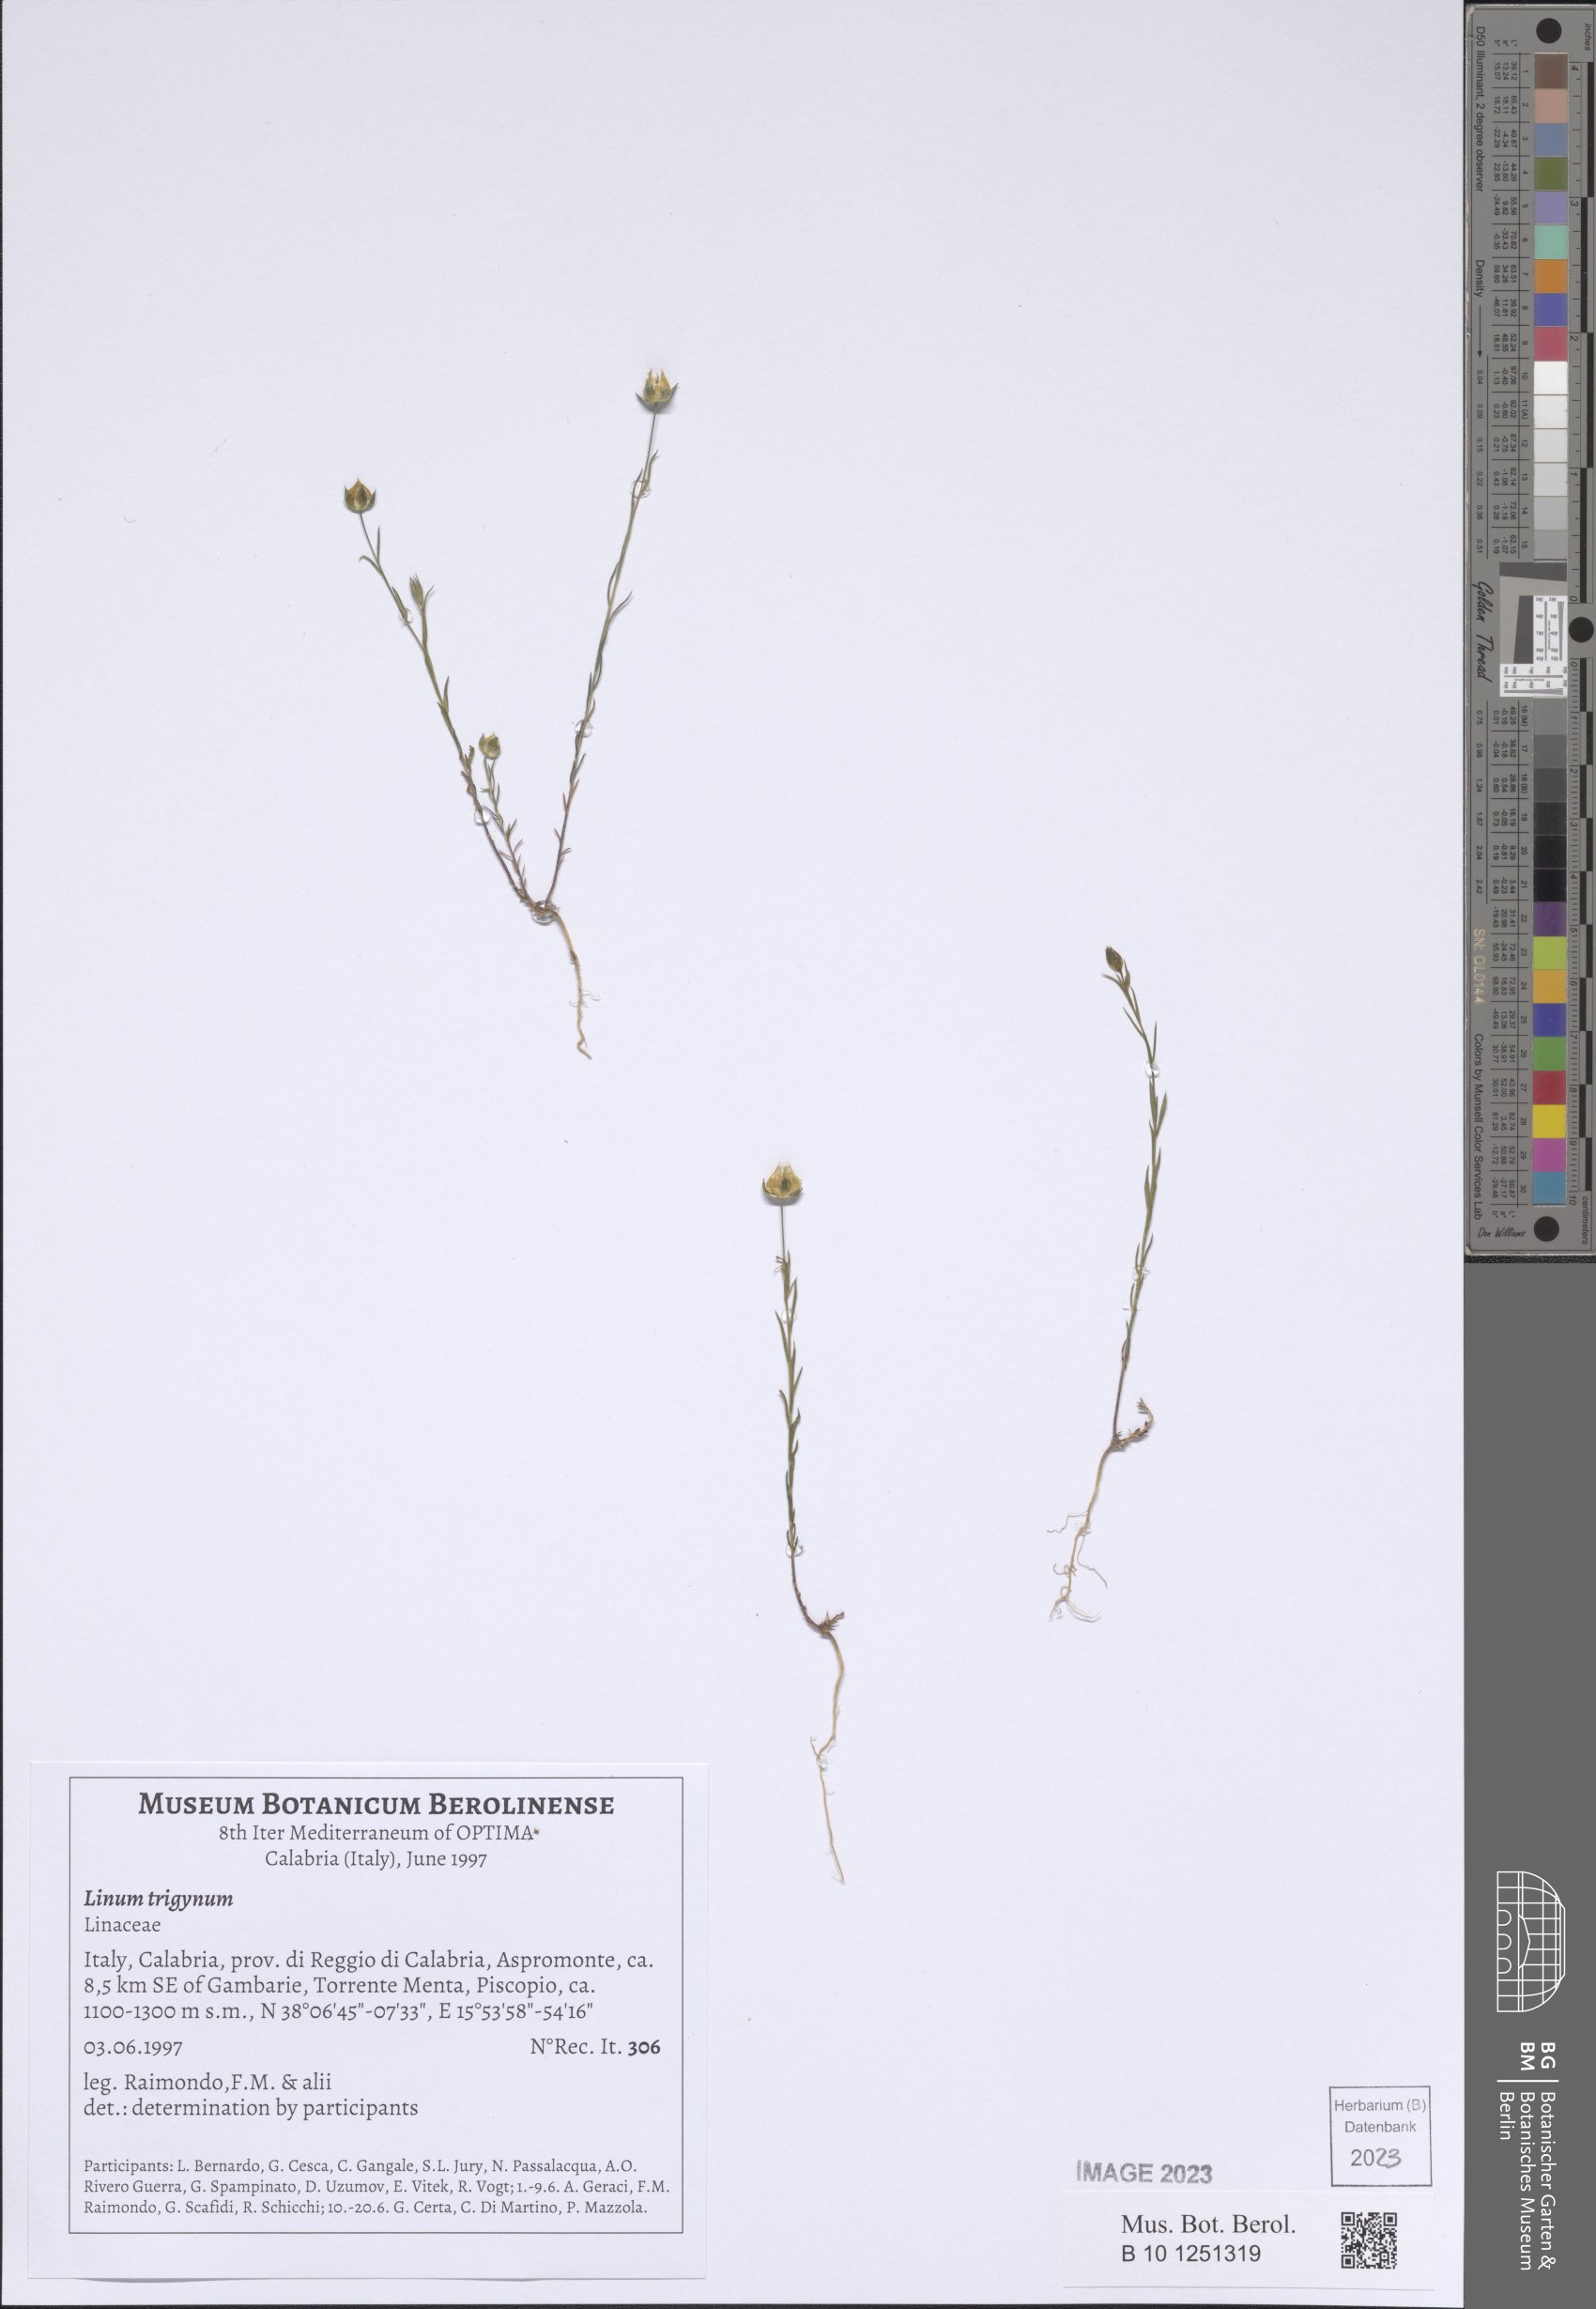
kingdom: Plantae
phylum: Tracheophyta
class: Magnoliopsida
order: Malpighiales
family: Linaceae
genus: Linum
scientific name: Linum trigynum
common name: French flax
